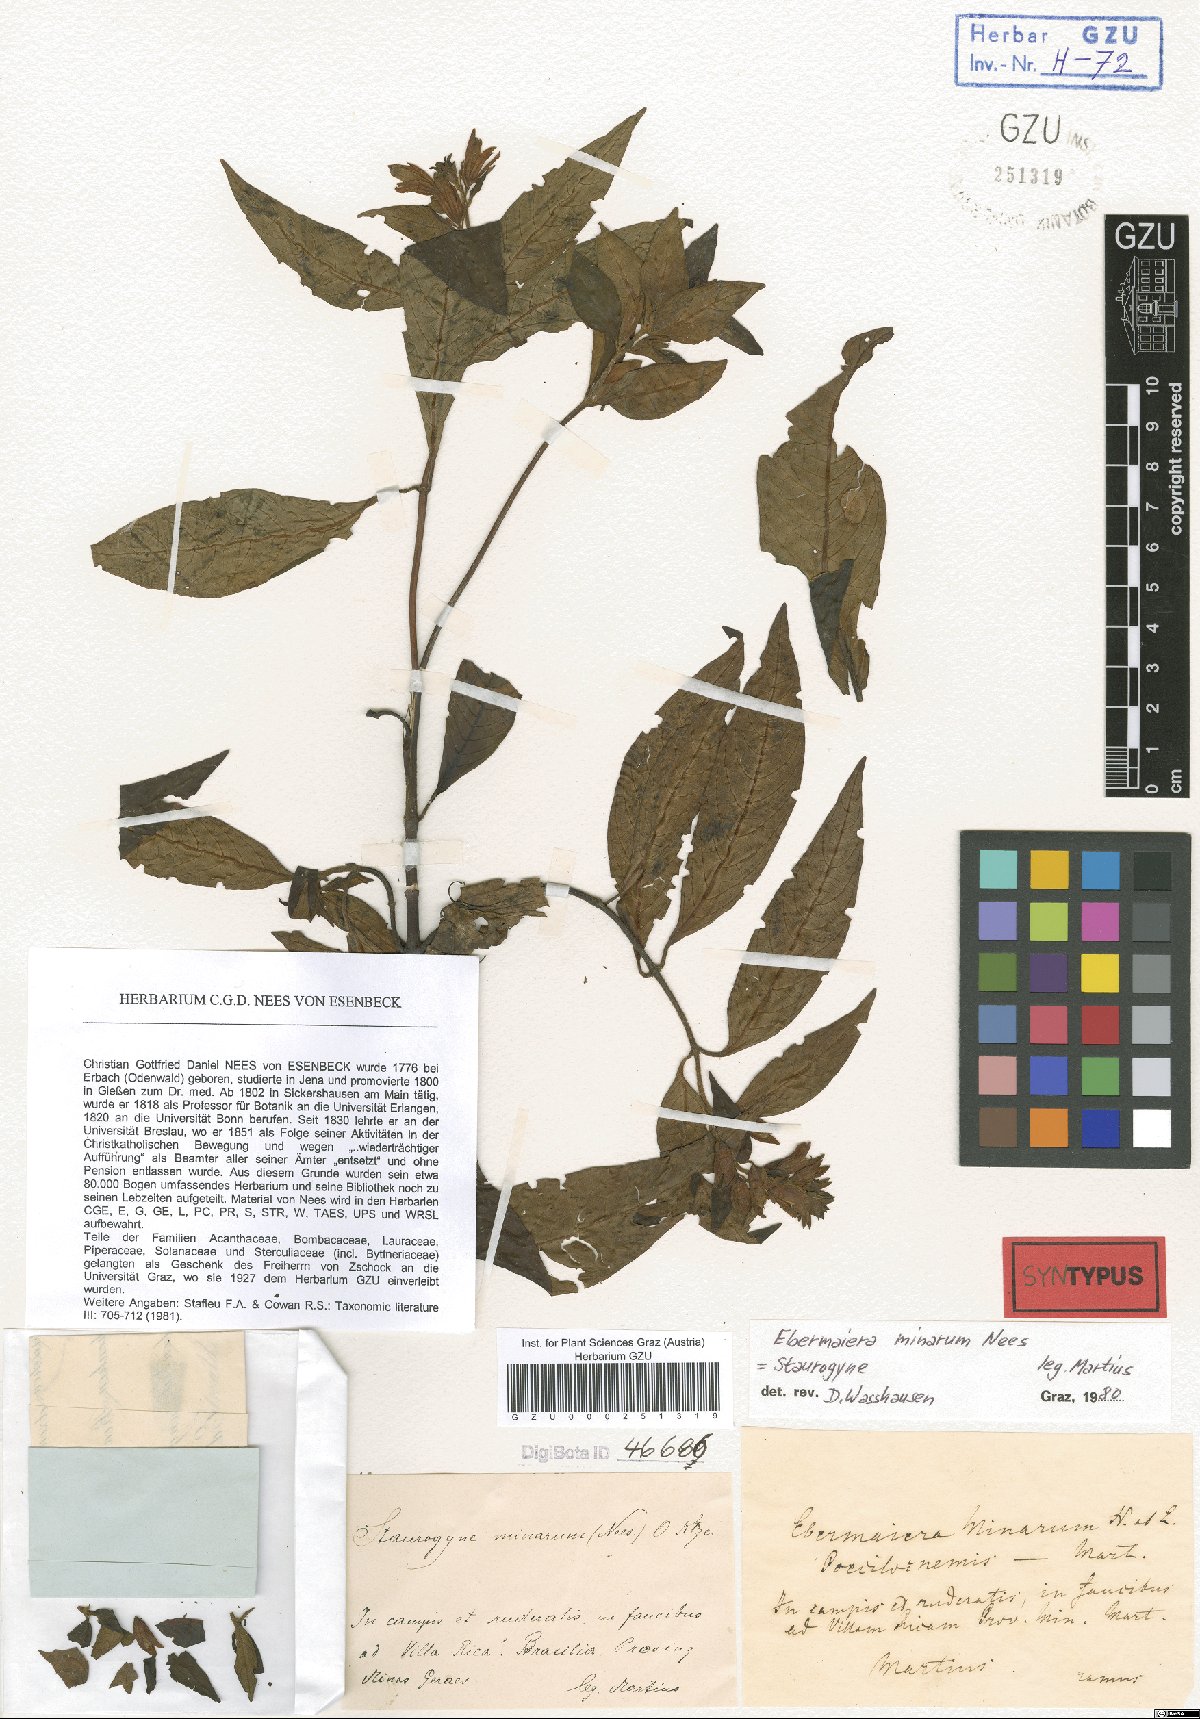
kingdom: Plantae
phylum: Tracheophyta
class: Magnoliopsida
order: Lamiales
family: Acanthaceae
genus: Staurogyne
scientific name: Staurogyne minarum
